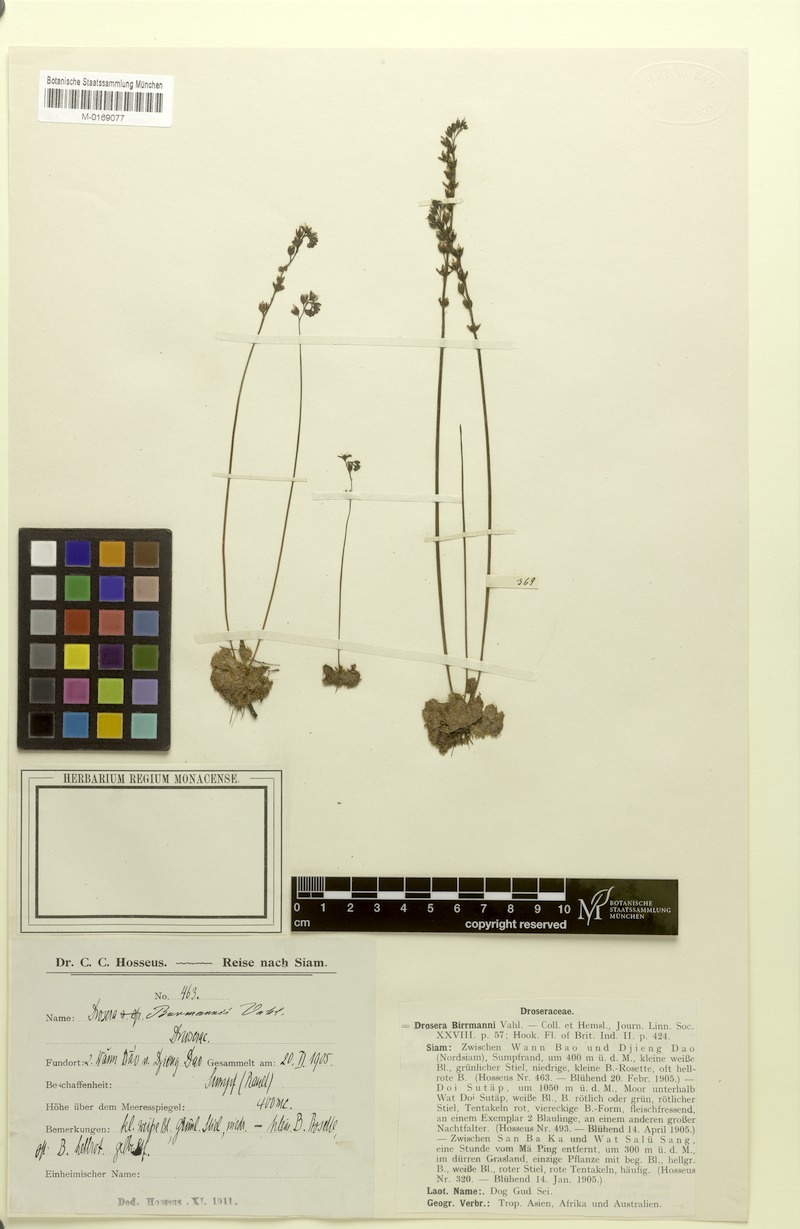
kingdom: Plantae
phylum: Tracheophyta
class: Magnoliopsida
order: Caryophyllales
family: Droseraceae
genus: Drosera
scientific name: Drosera burmannii
